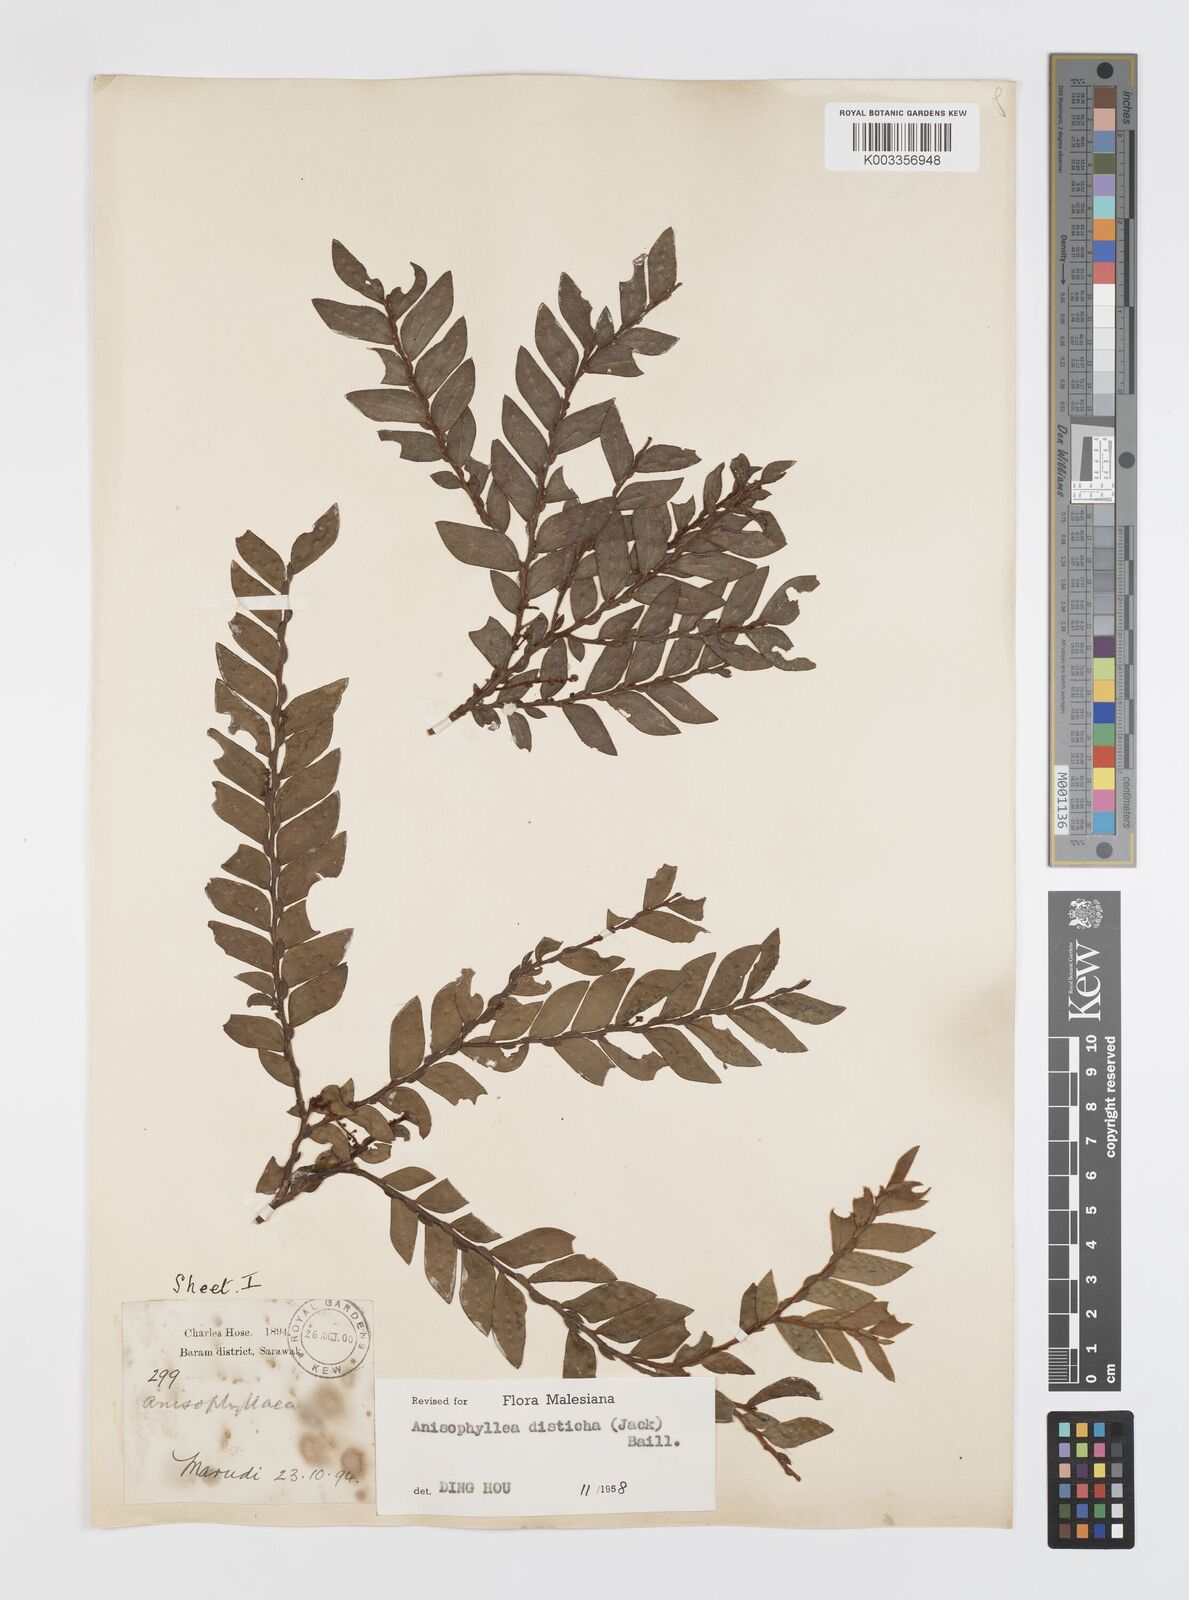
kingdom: Plantae
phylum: Tracheophyta
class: Magnoliopsida
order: Cucurbitales
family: Anisophylleaceae
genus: Anisophyllea
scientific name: Anisophyllea disticha
